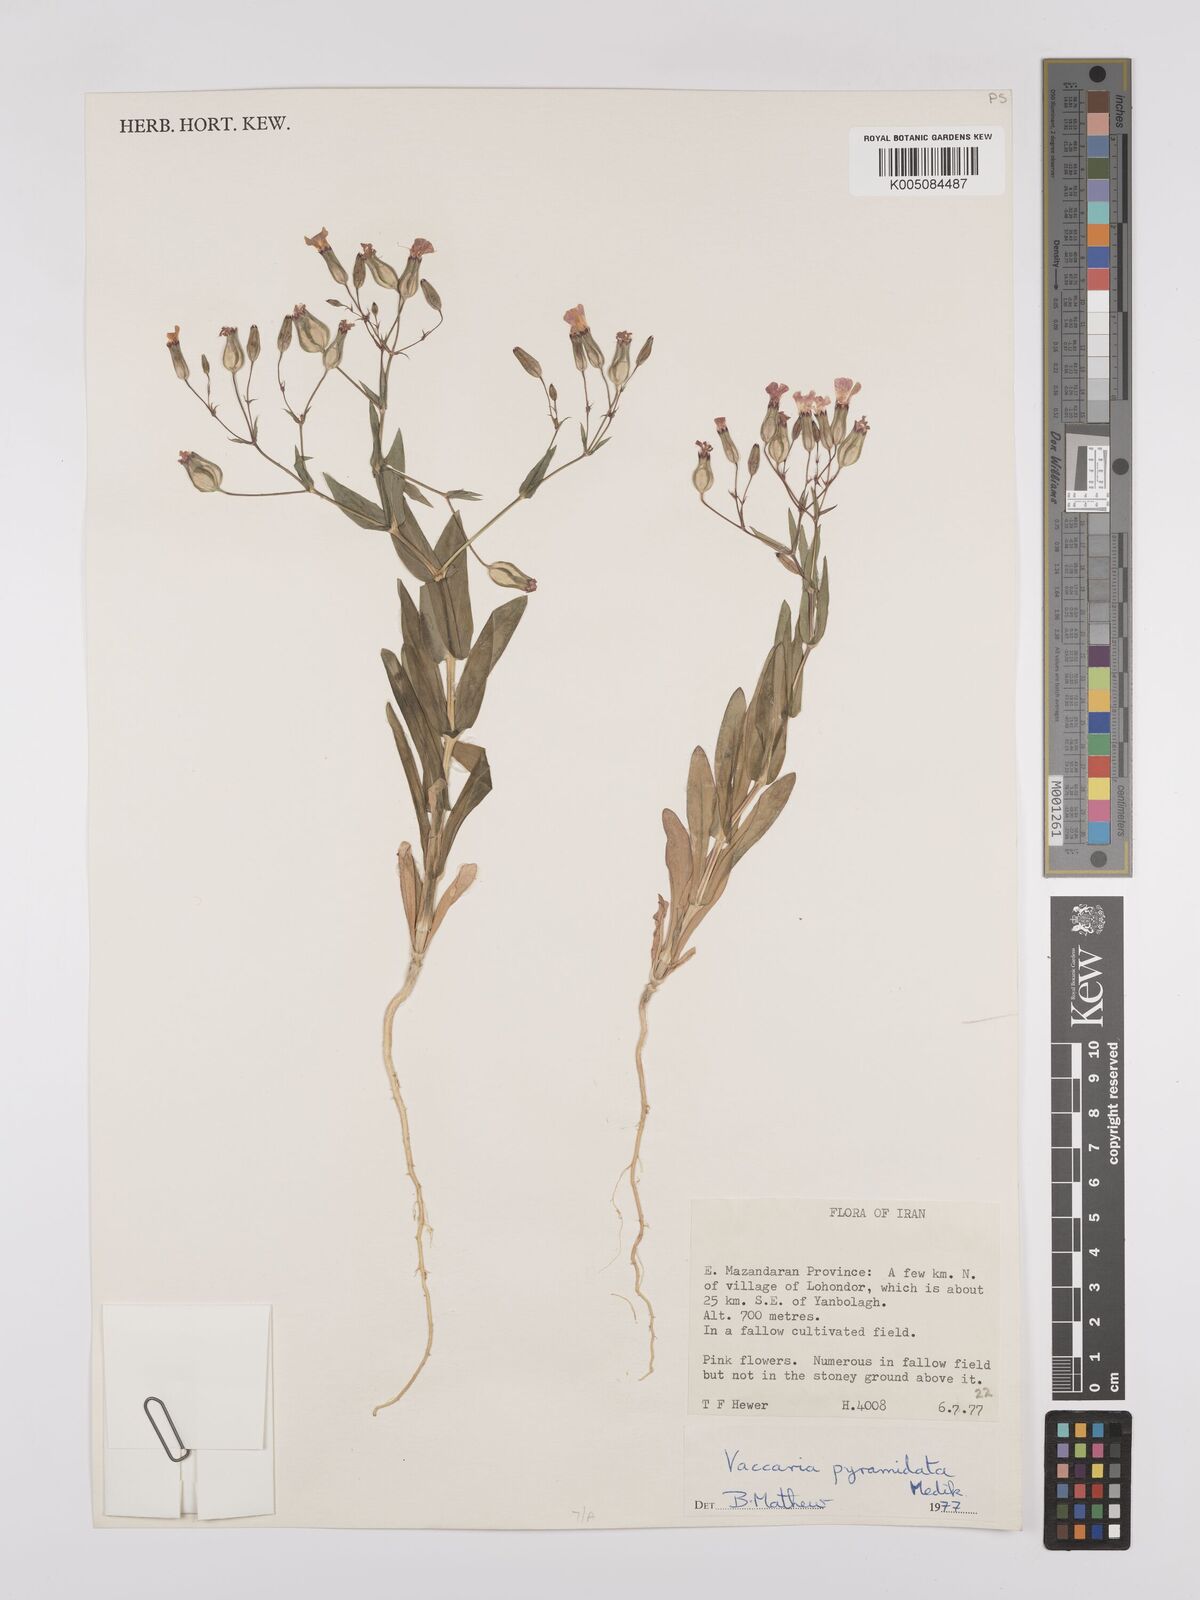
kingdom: Plantae
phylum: Tracheophyta
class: Magnoliopsida
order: Caryophyllales
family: Caryophyllaceae
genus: Gypsophila
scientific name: Gypsophila vaccaria
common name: Cow soapwort
